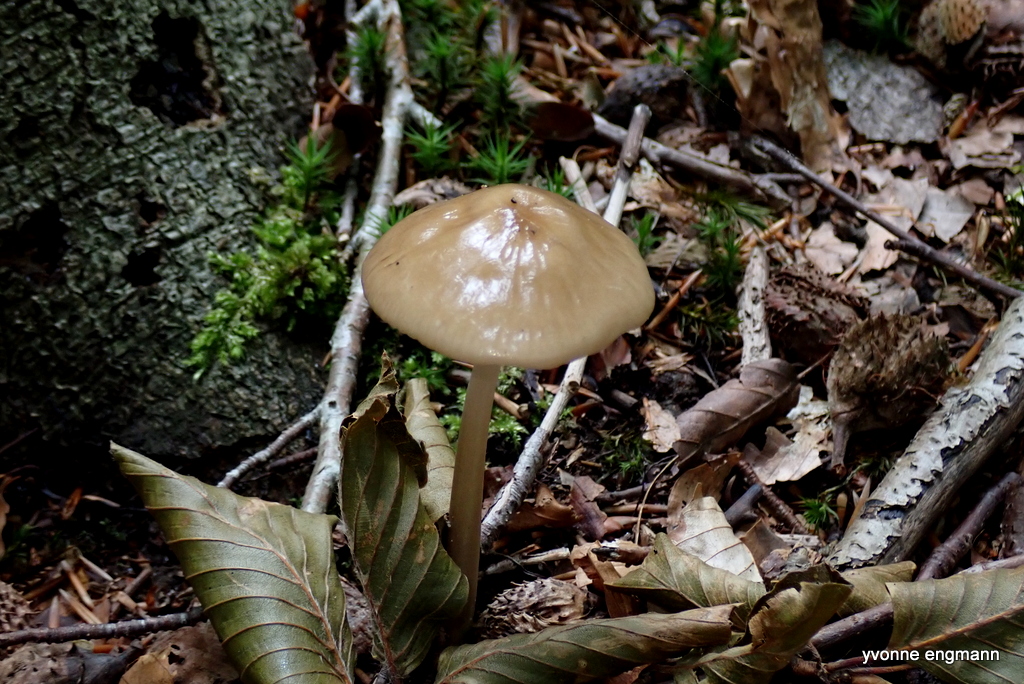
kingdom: Fungi
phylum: Basidiomycota
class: Agaricomycetes
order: Agaricales
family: Physalacriaceae
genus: Hymenopellis
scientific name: Hymenopellis radicata
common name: almindelig pælerodshat
